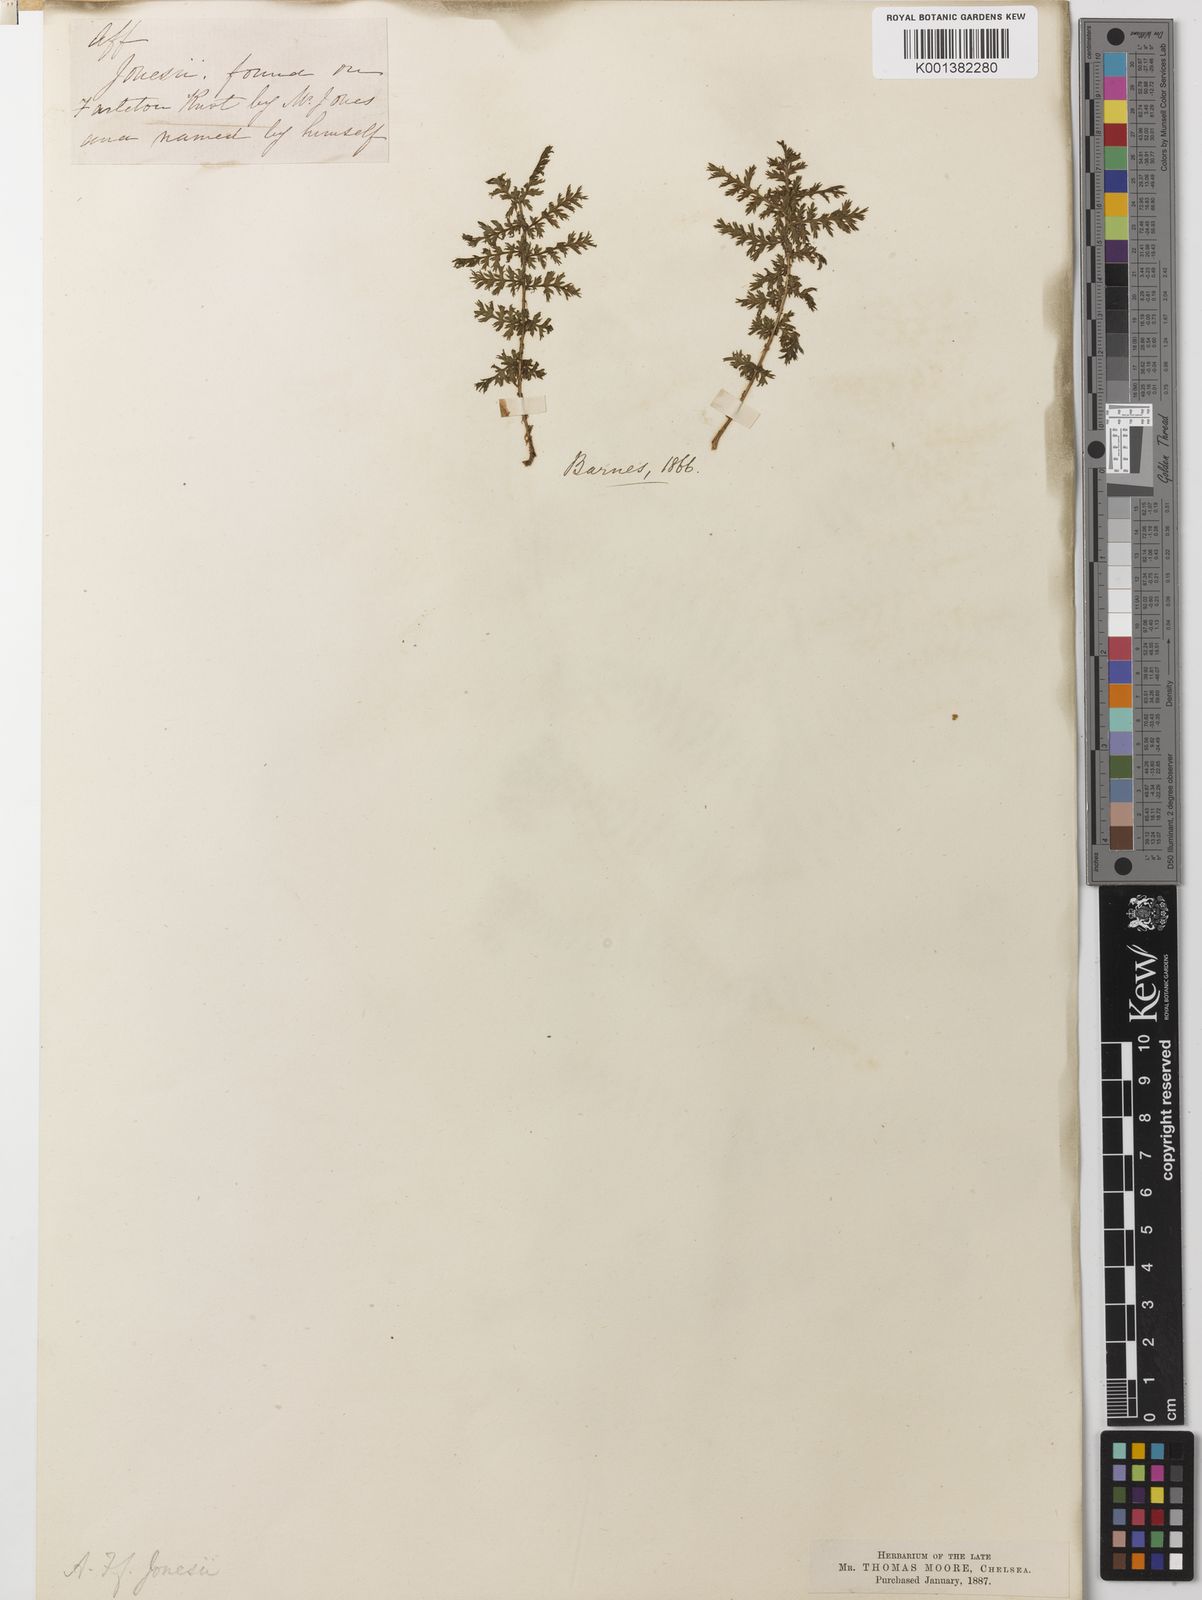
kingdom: Plantae
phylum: Tracheophyta
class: Polypodiopsida
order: Polypodiales
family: Athyriaceae
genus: Athyrium
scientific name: Athyrium filix-femina
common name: Lady fern
